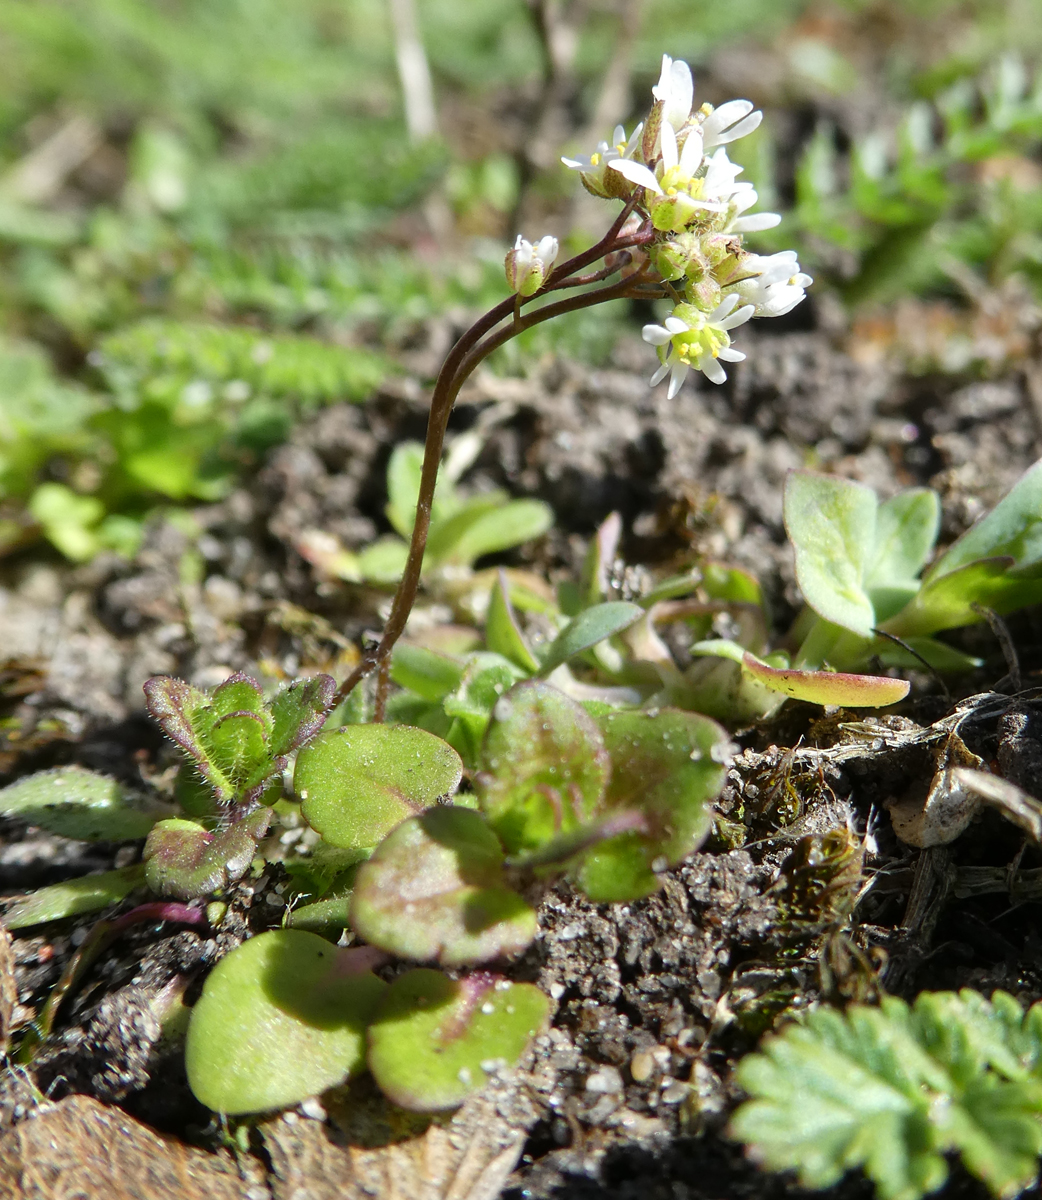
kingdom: Plantae
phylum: Tracheophyta
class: Magnoliopsida
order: Brassicales
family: Brassicaceae
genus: Draba
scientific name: Draba verna
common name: Spring draba
